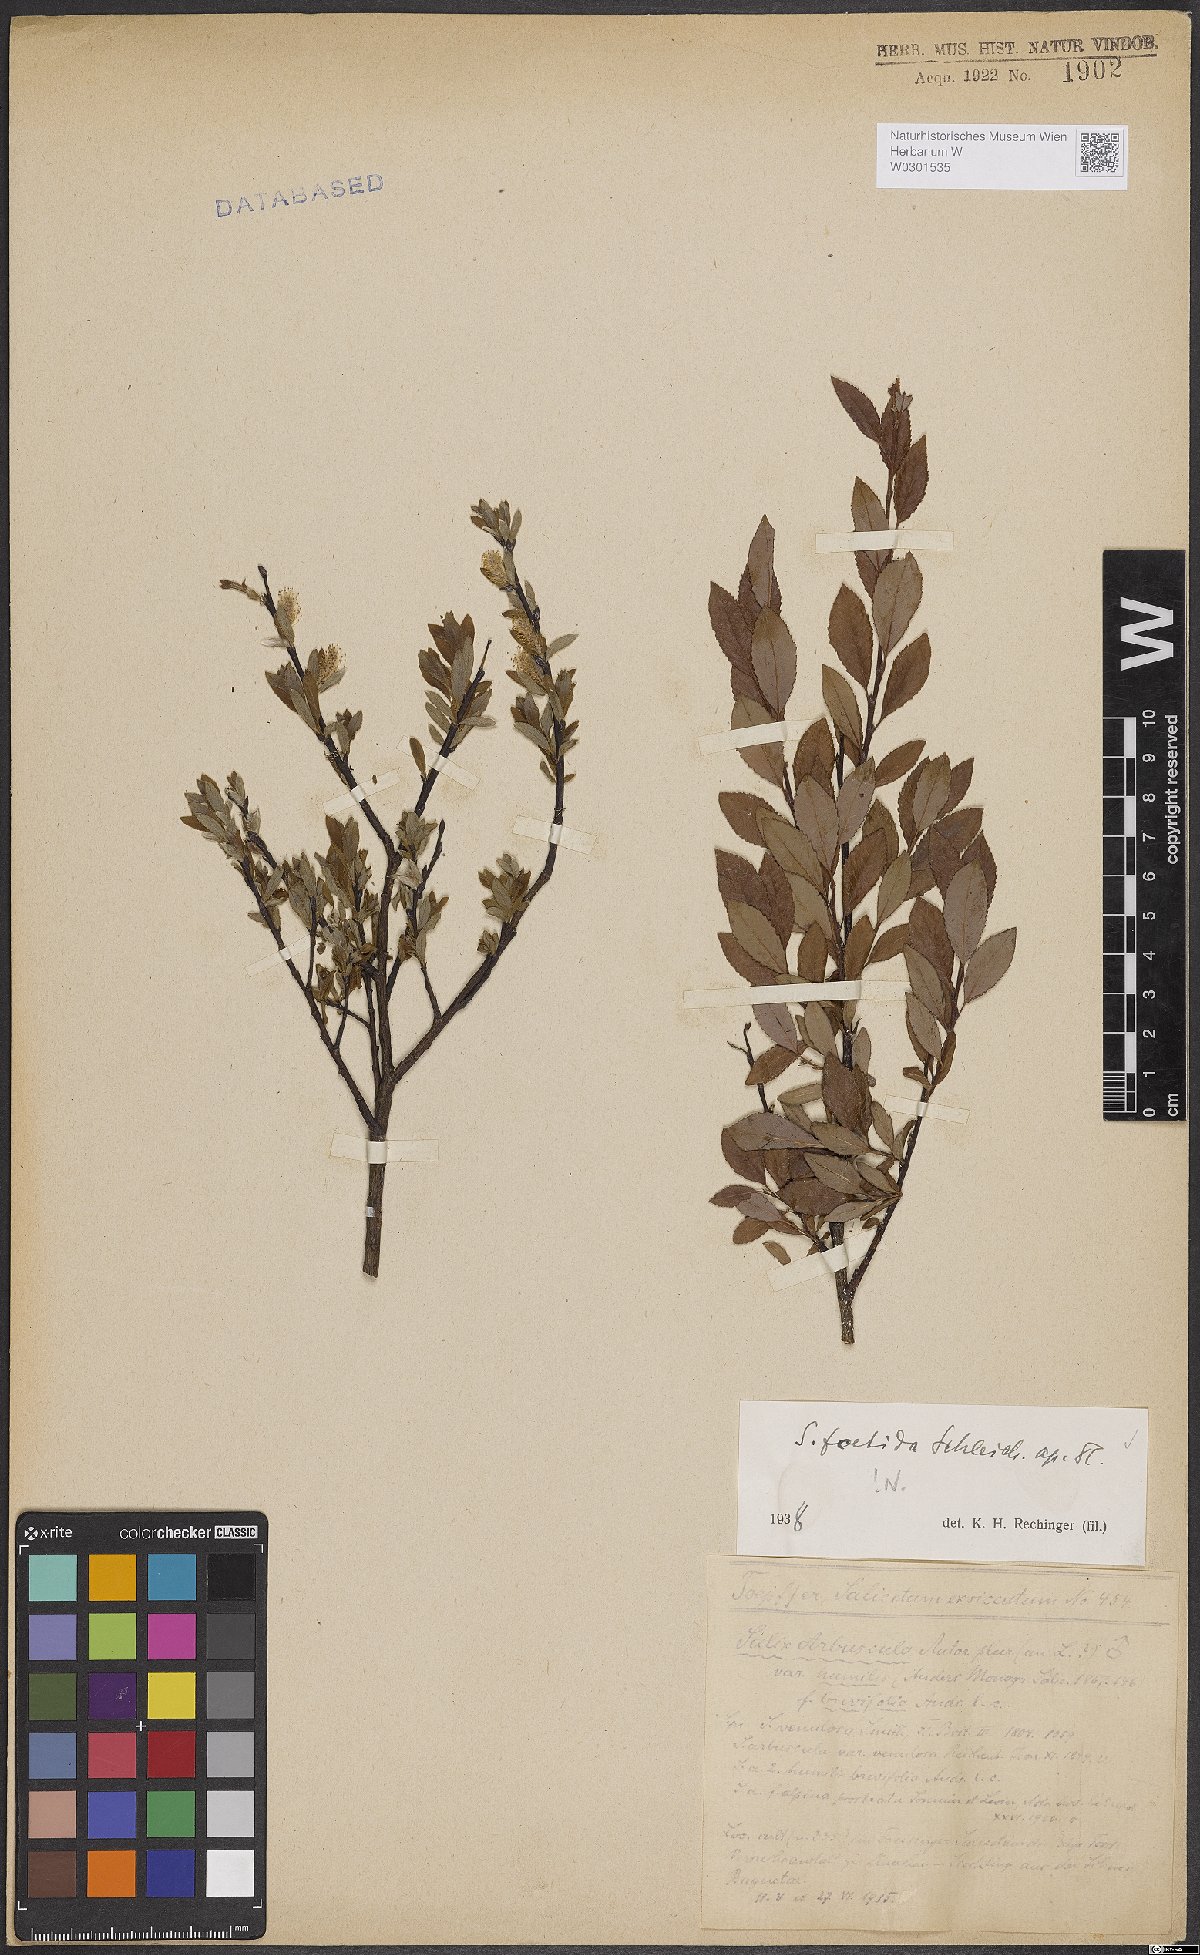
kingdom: Plantae
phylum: Tracheophyta
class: Magnoliopsida
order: Malpighiales
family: Salicaceae
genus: Salix
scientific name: Salix foetida
